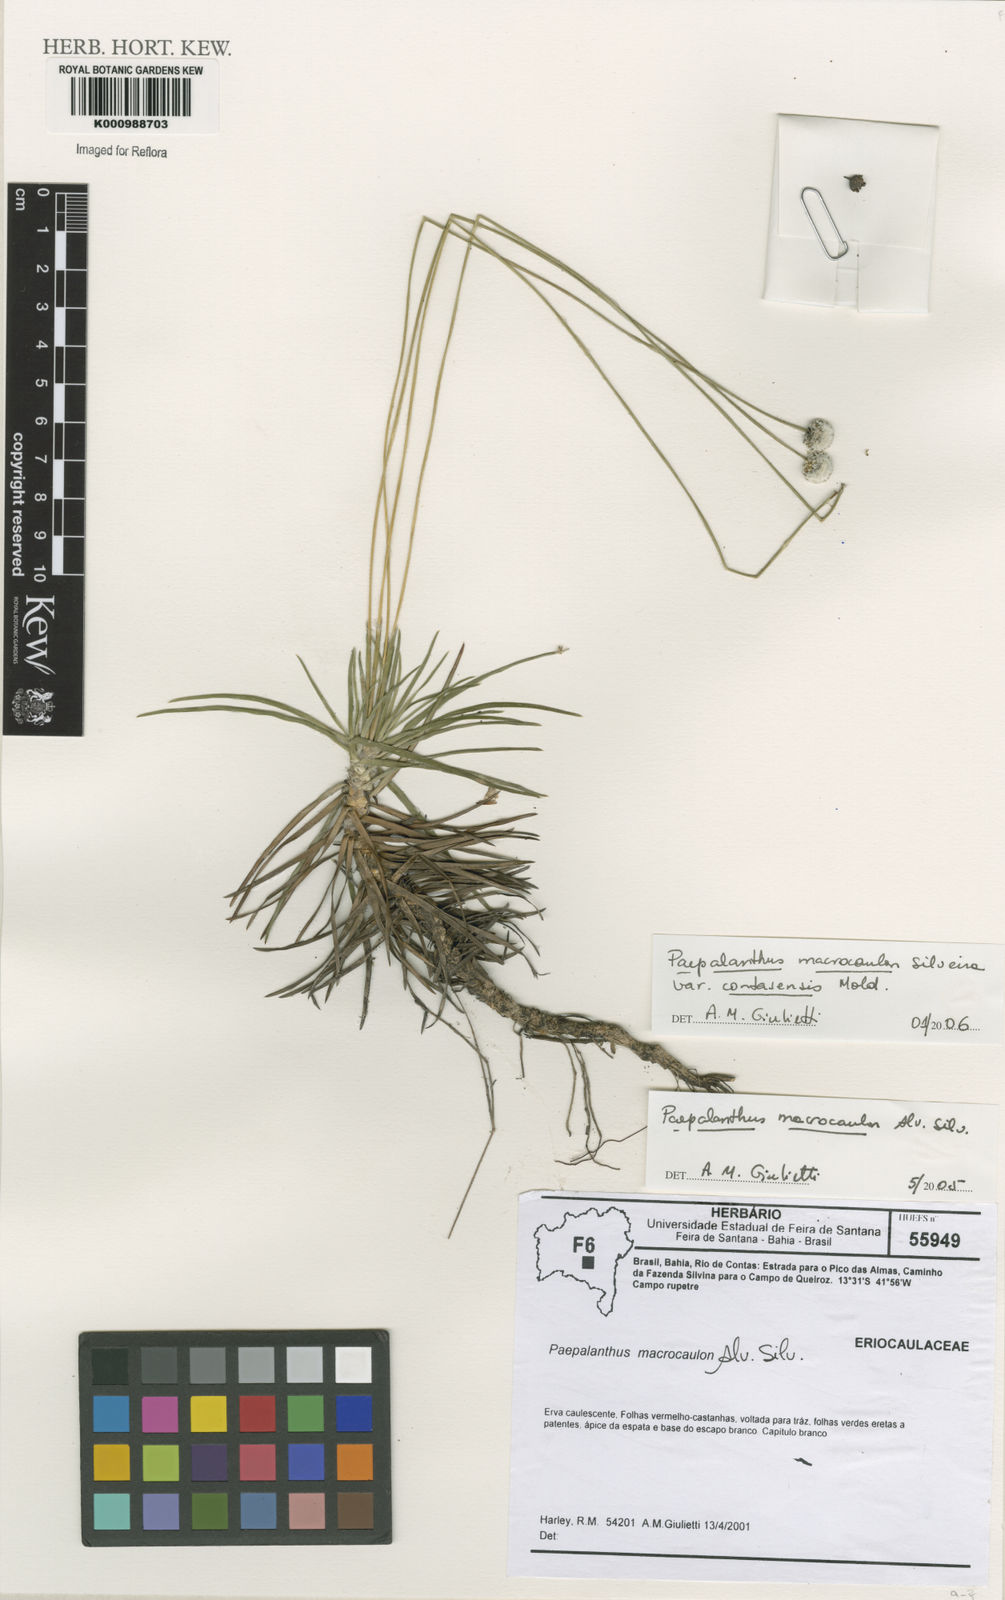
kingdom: Plantae
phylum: Tracheophyta
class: Liliopsida
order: Poales
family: Eriocaulaceae
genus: Paepalanthus
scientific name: Paepalanthus macrocaulon
